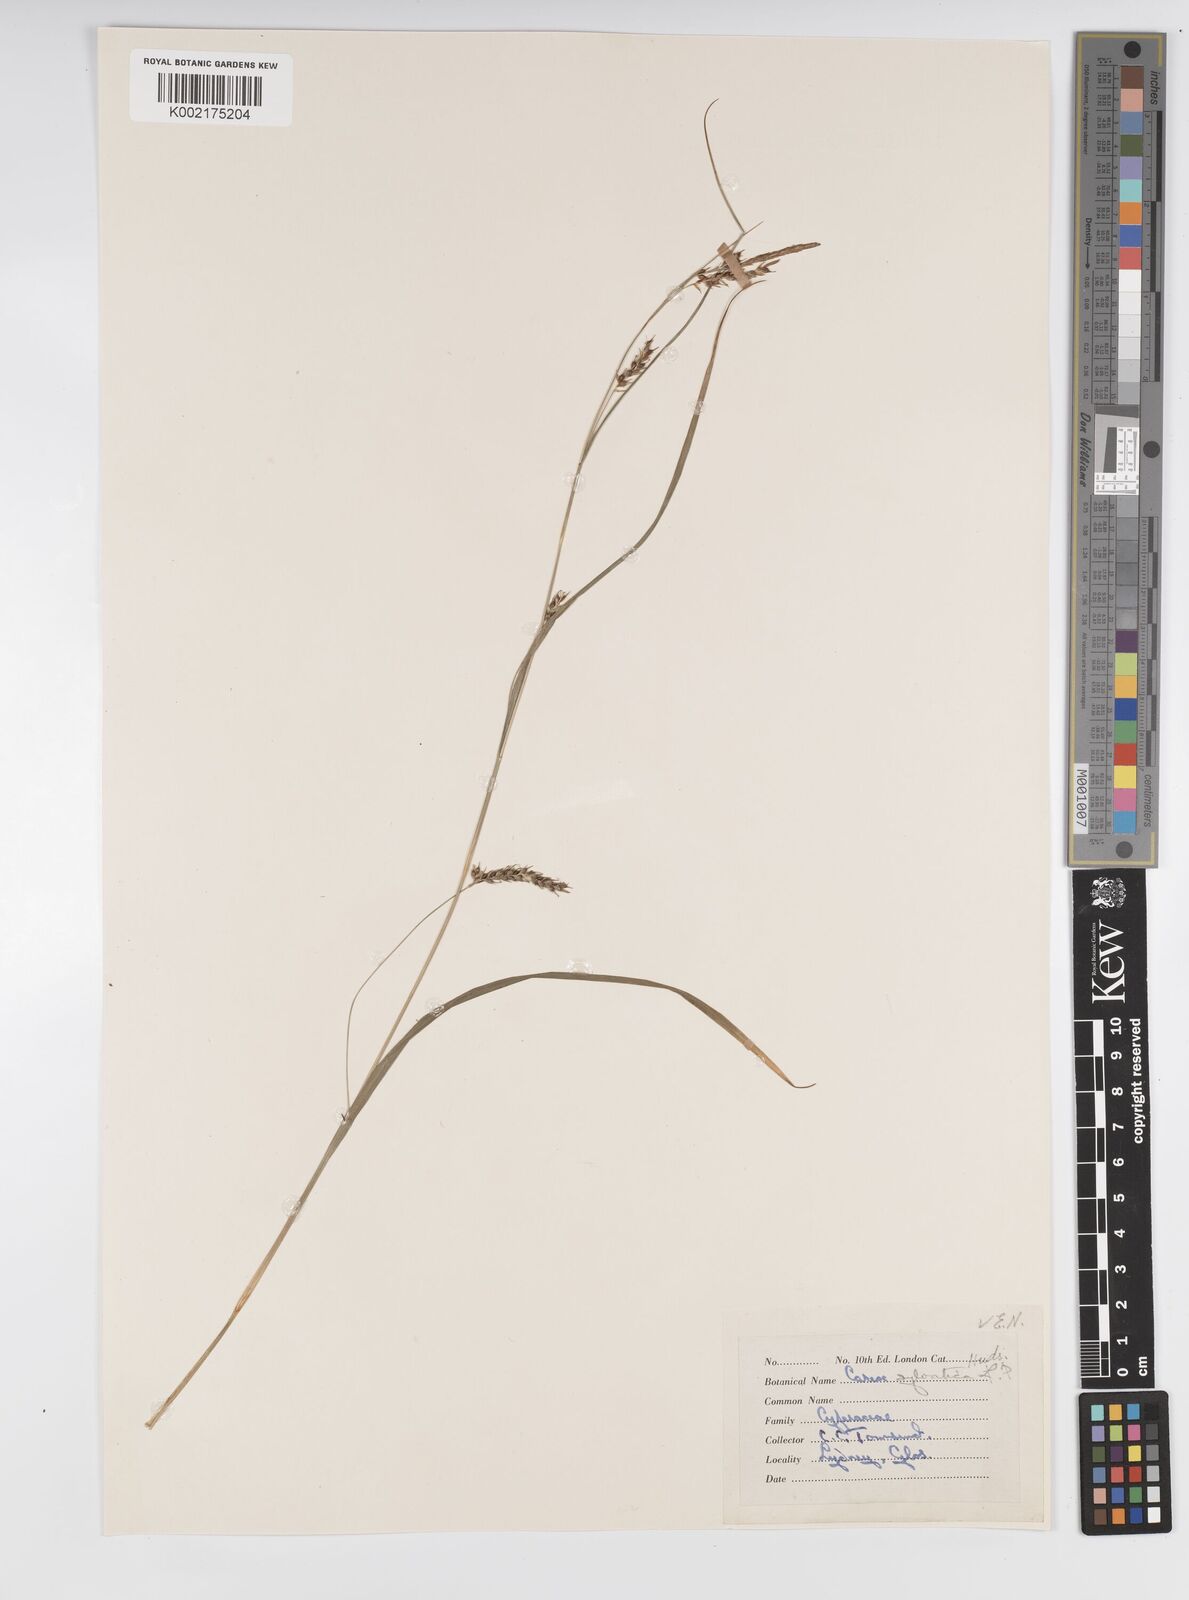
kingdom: Plantae
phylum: Tracheophyta
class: Liliopsida
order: Poales
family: Cyperaceae
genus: Carex
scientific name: Carex sylvatica
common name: Wood-sedge
